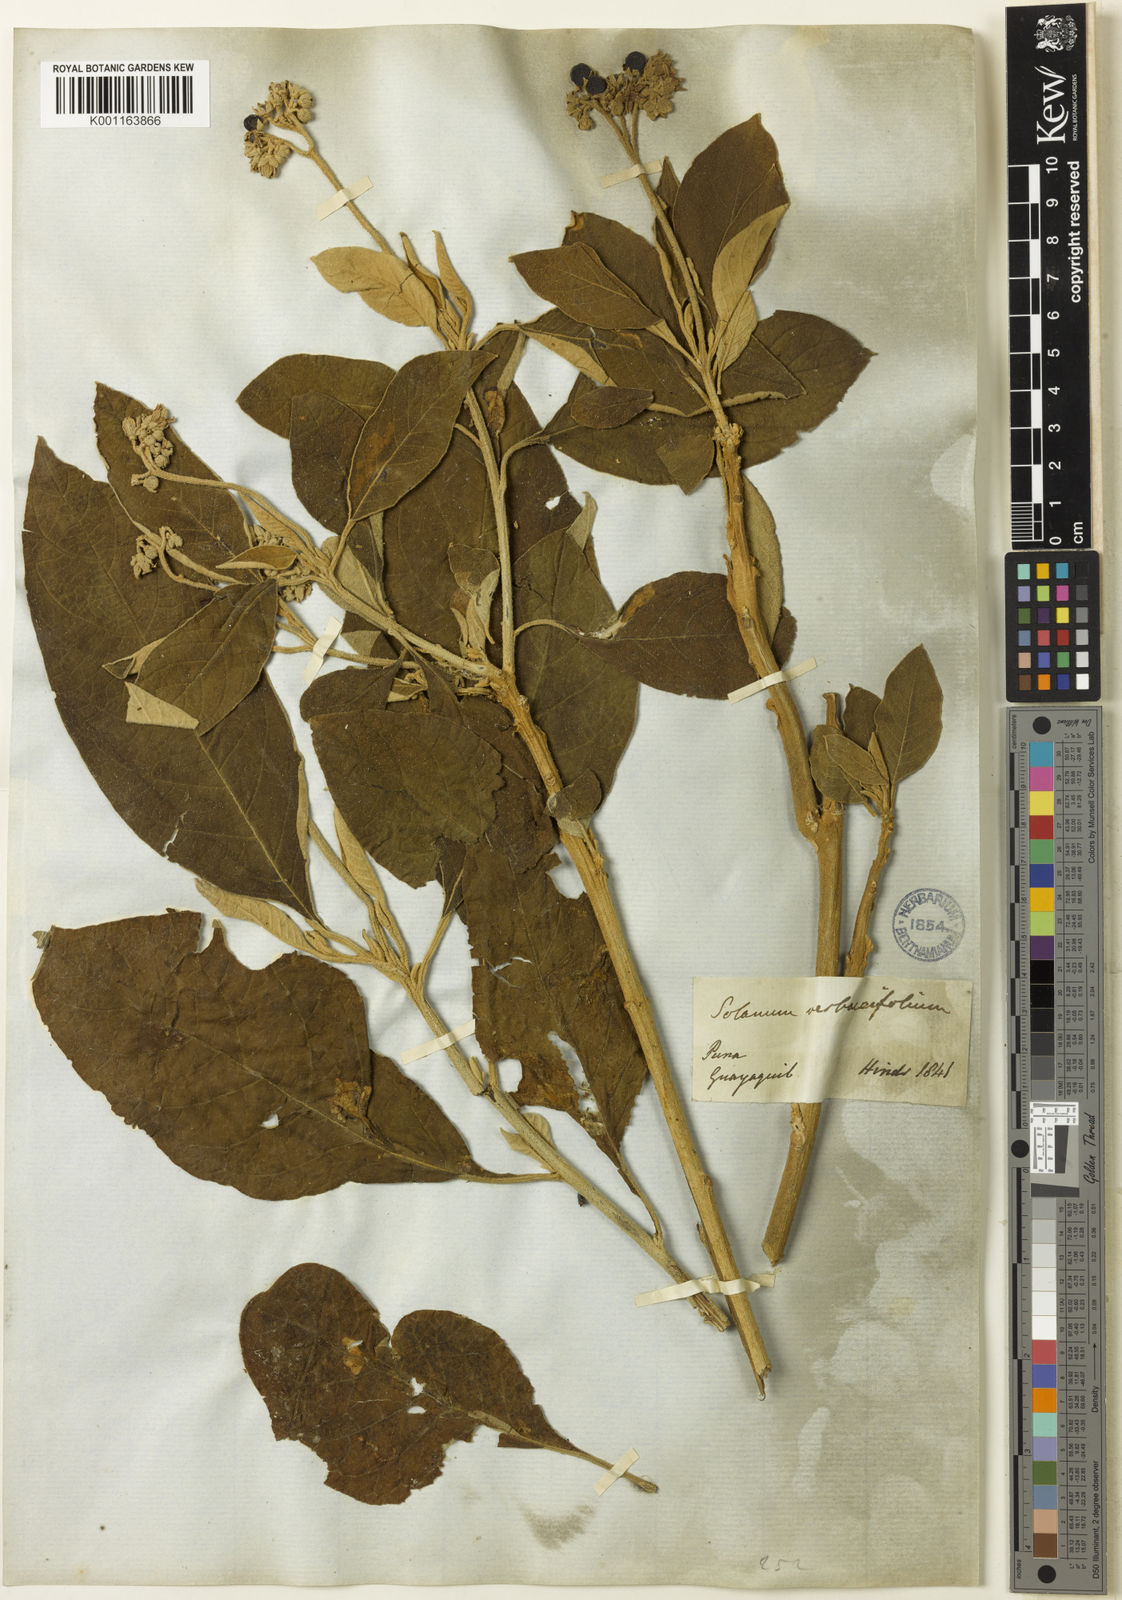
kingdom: Plantae
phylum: Tracheophyta
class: Magnoliopsida
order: Solanales
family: Solanaceae
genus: Solanum
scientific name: Solanum erianthum
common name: Tobacco-tree
